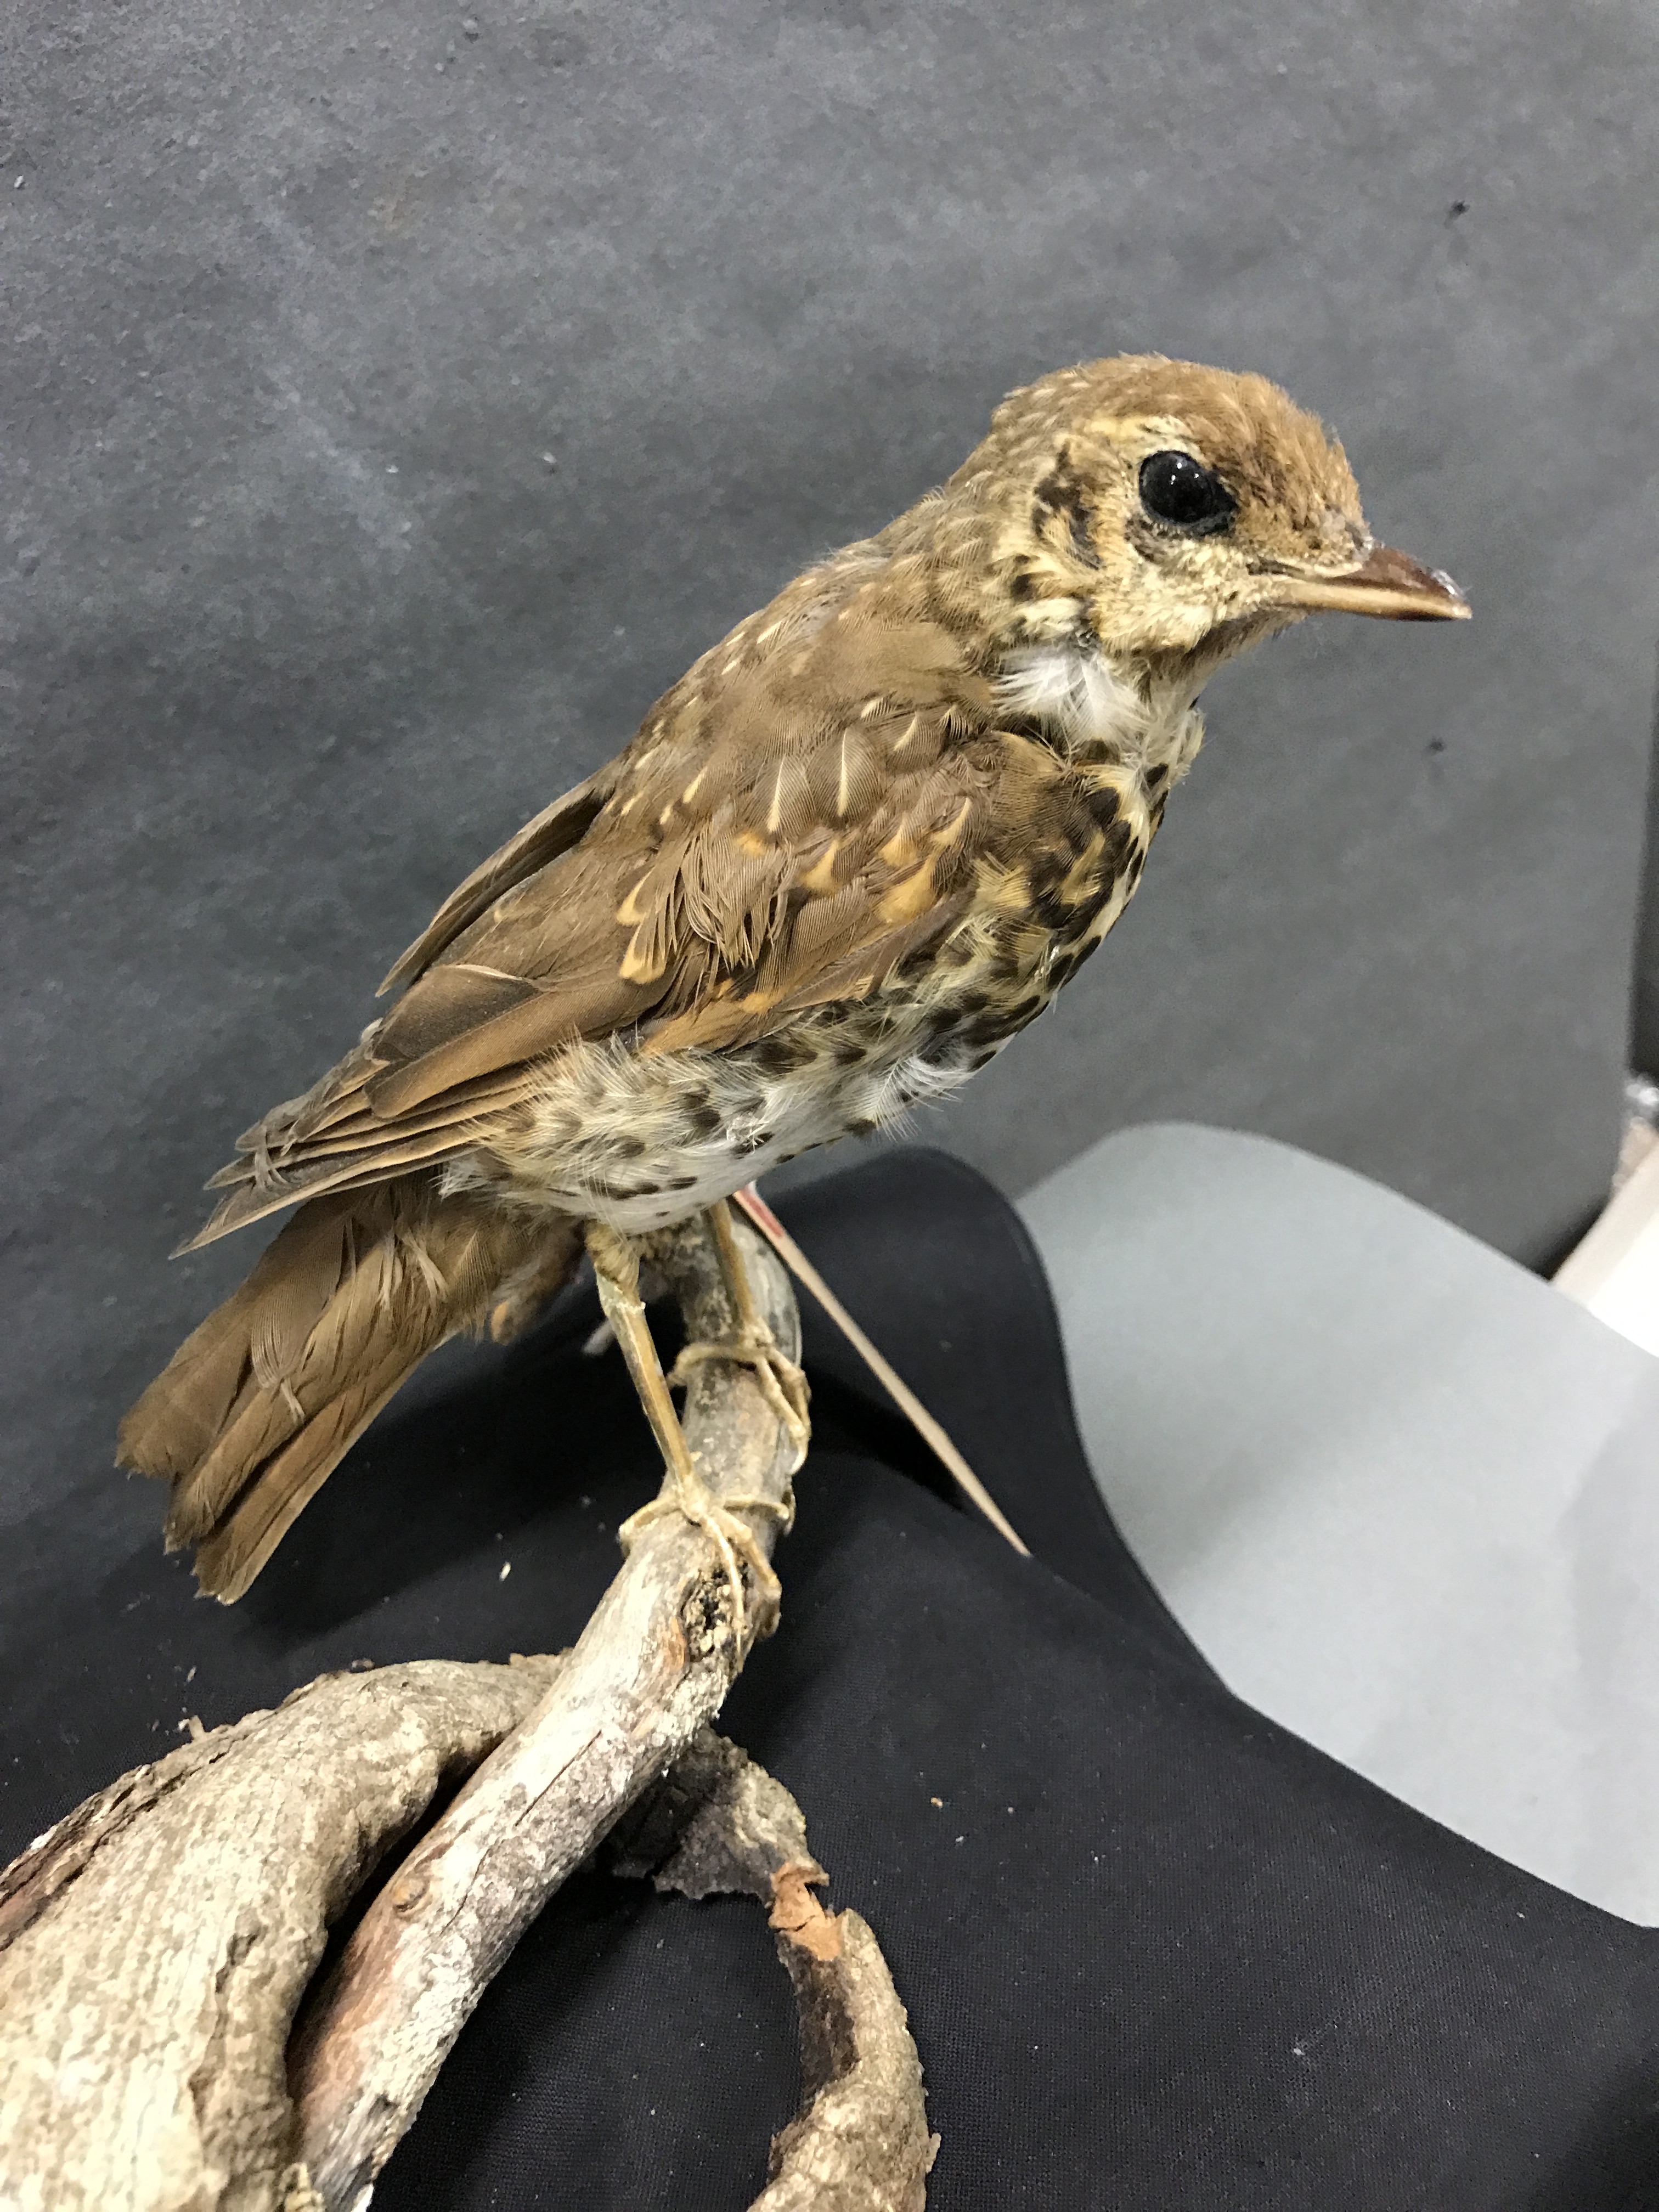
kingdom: Animalia
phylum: Chordata
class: Aves
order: Passeriformes
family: Turdidae
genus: Turdus
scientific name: Turdus philomelos
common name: Song thrush
